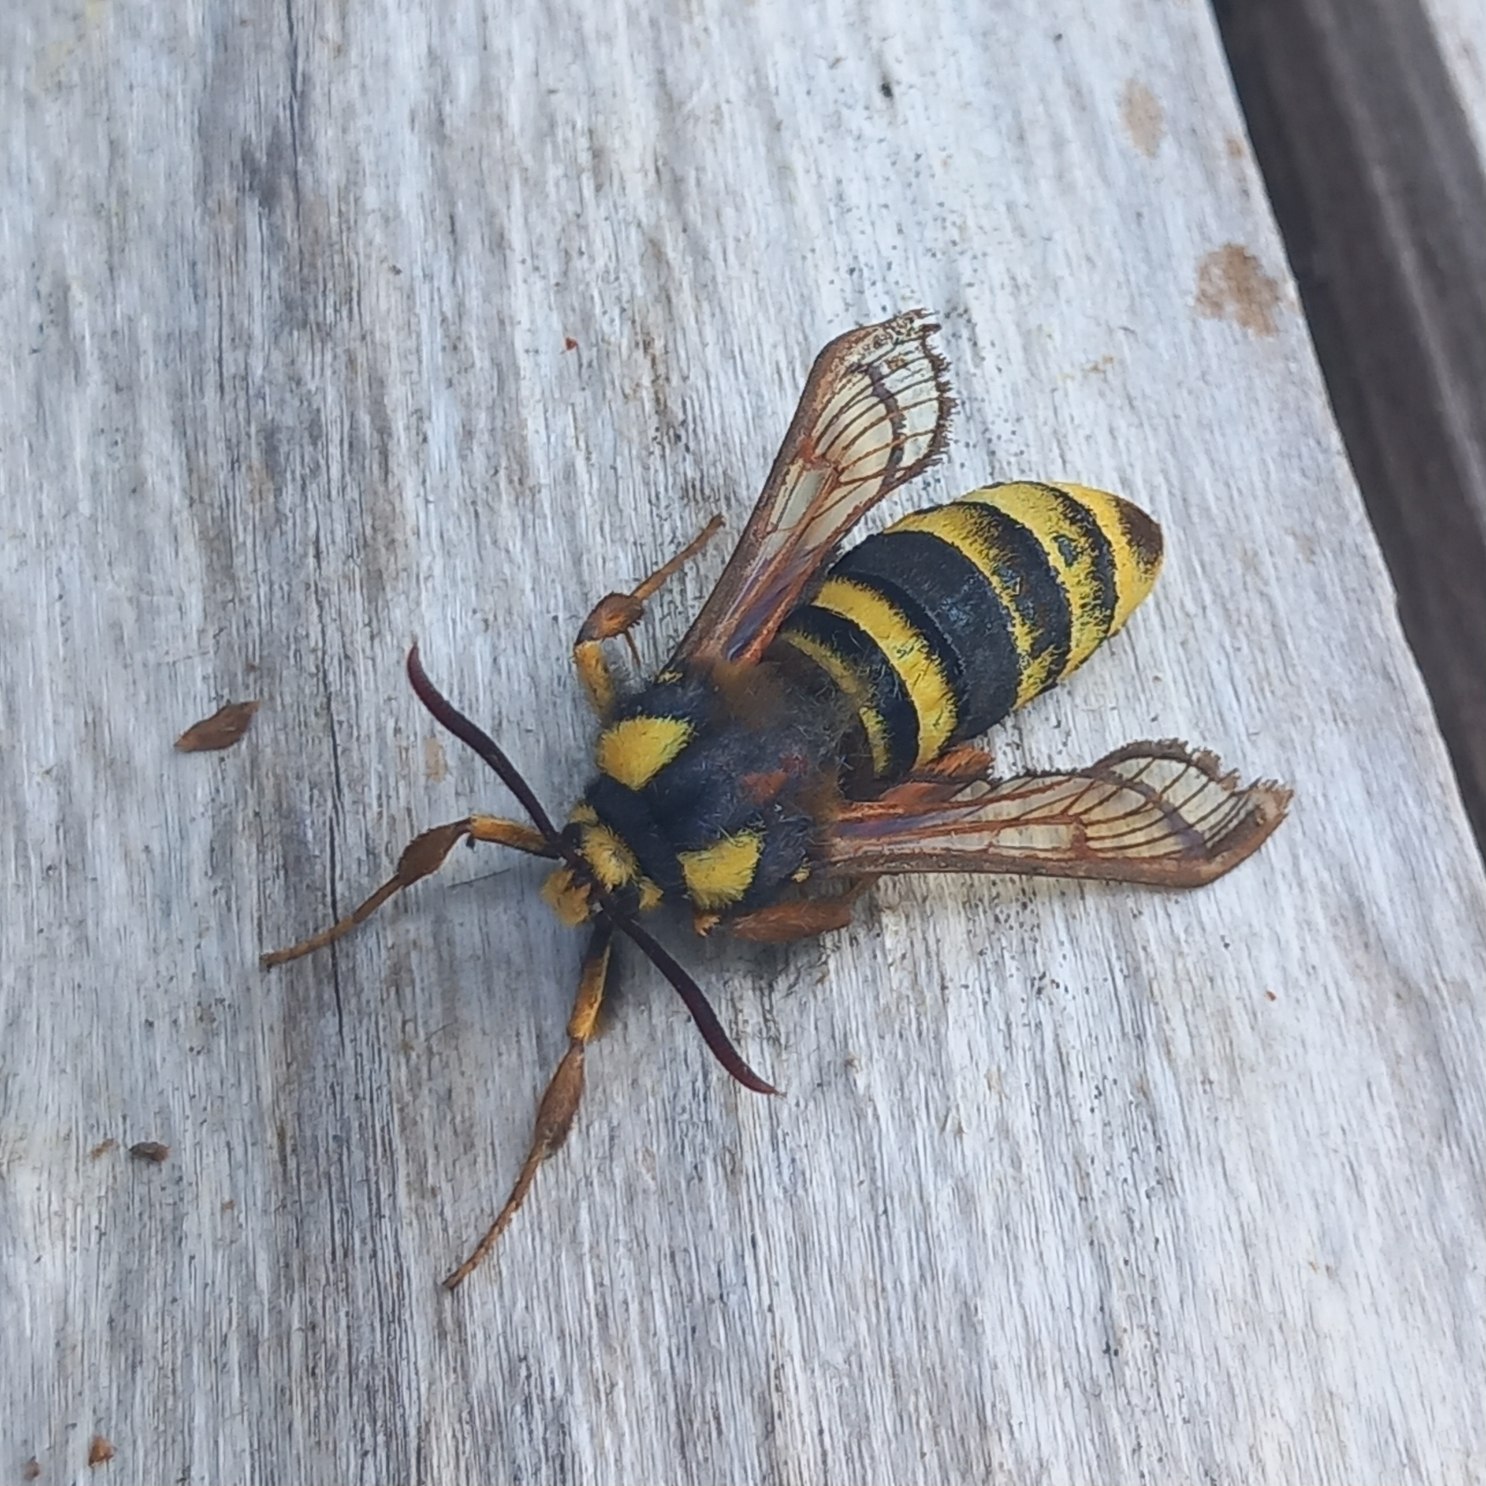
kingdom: Animalia
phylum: Arthropoda
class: Insecta
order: Lepidoptera
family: Sesiidae
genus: Sesia
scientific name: Sesia apiformis
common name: Stor glassværmer
